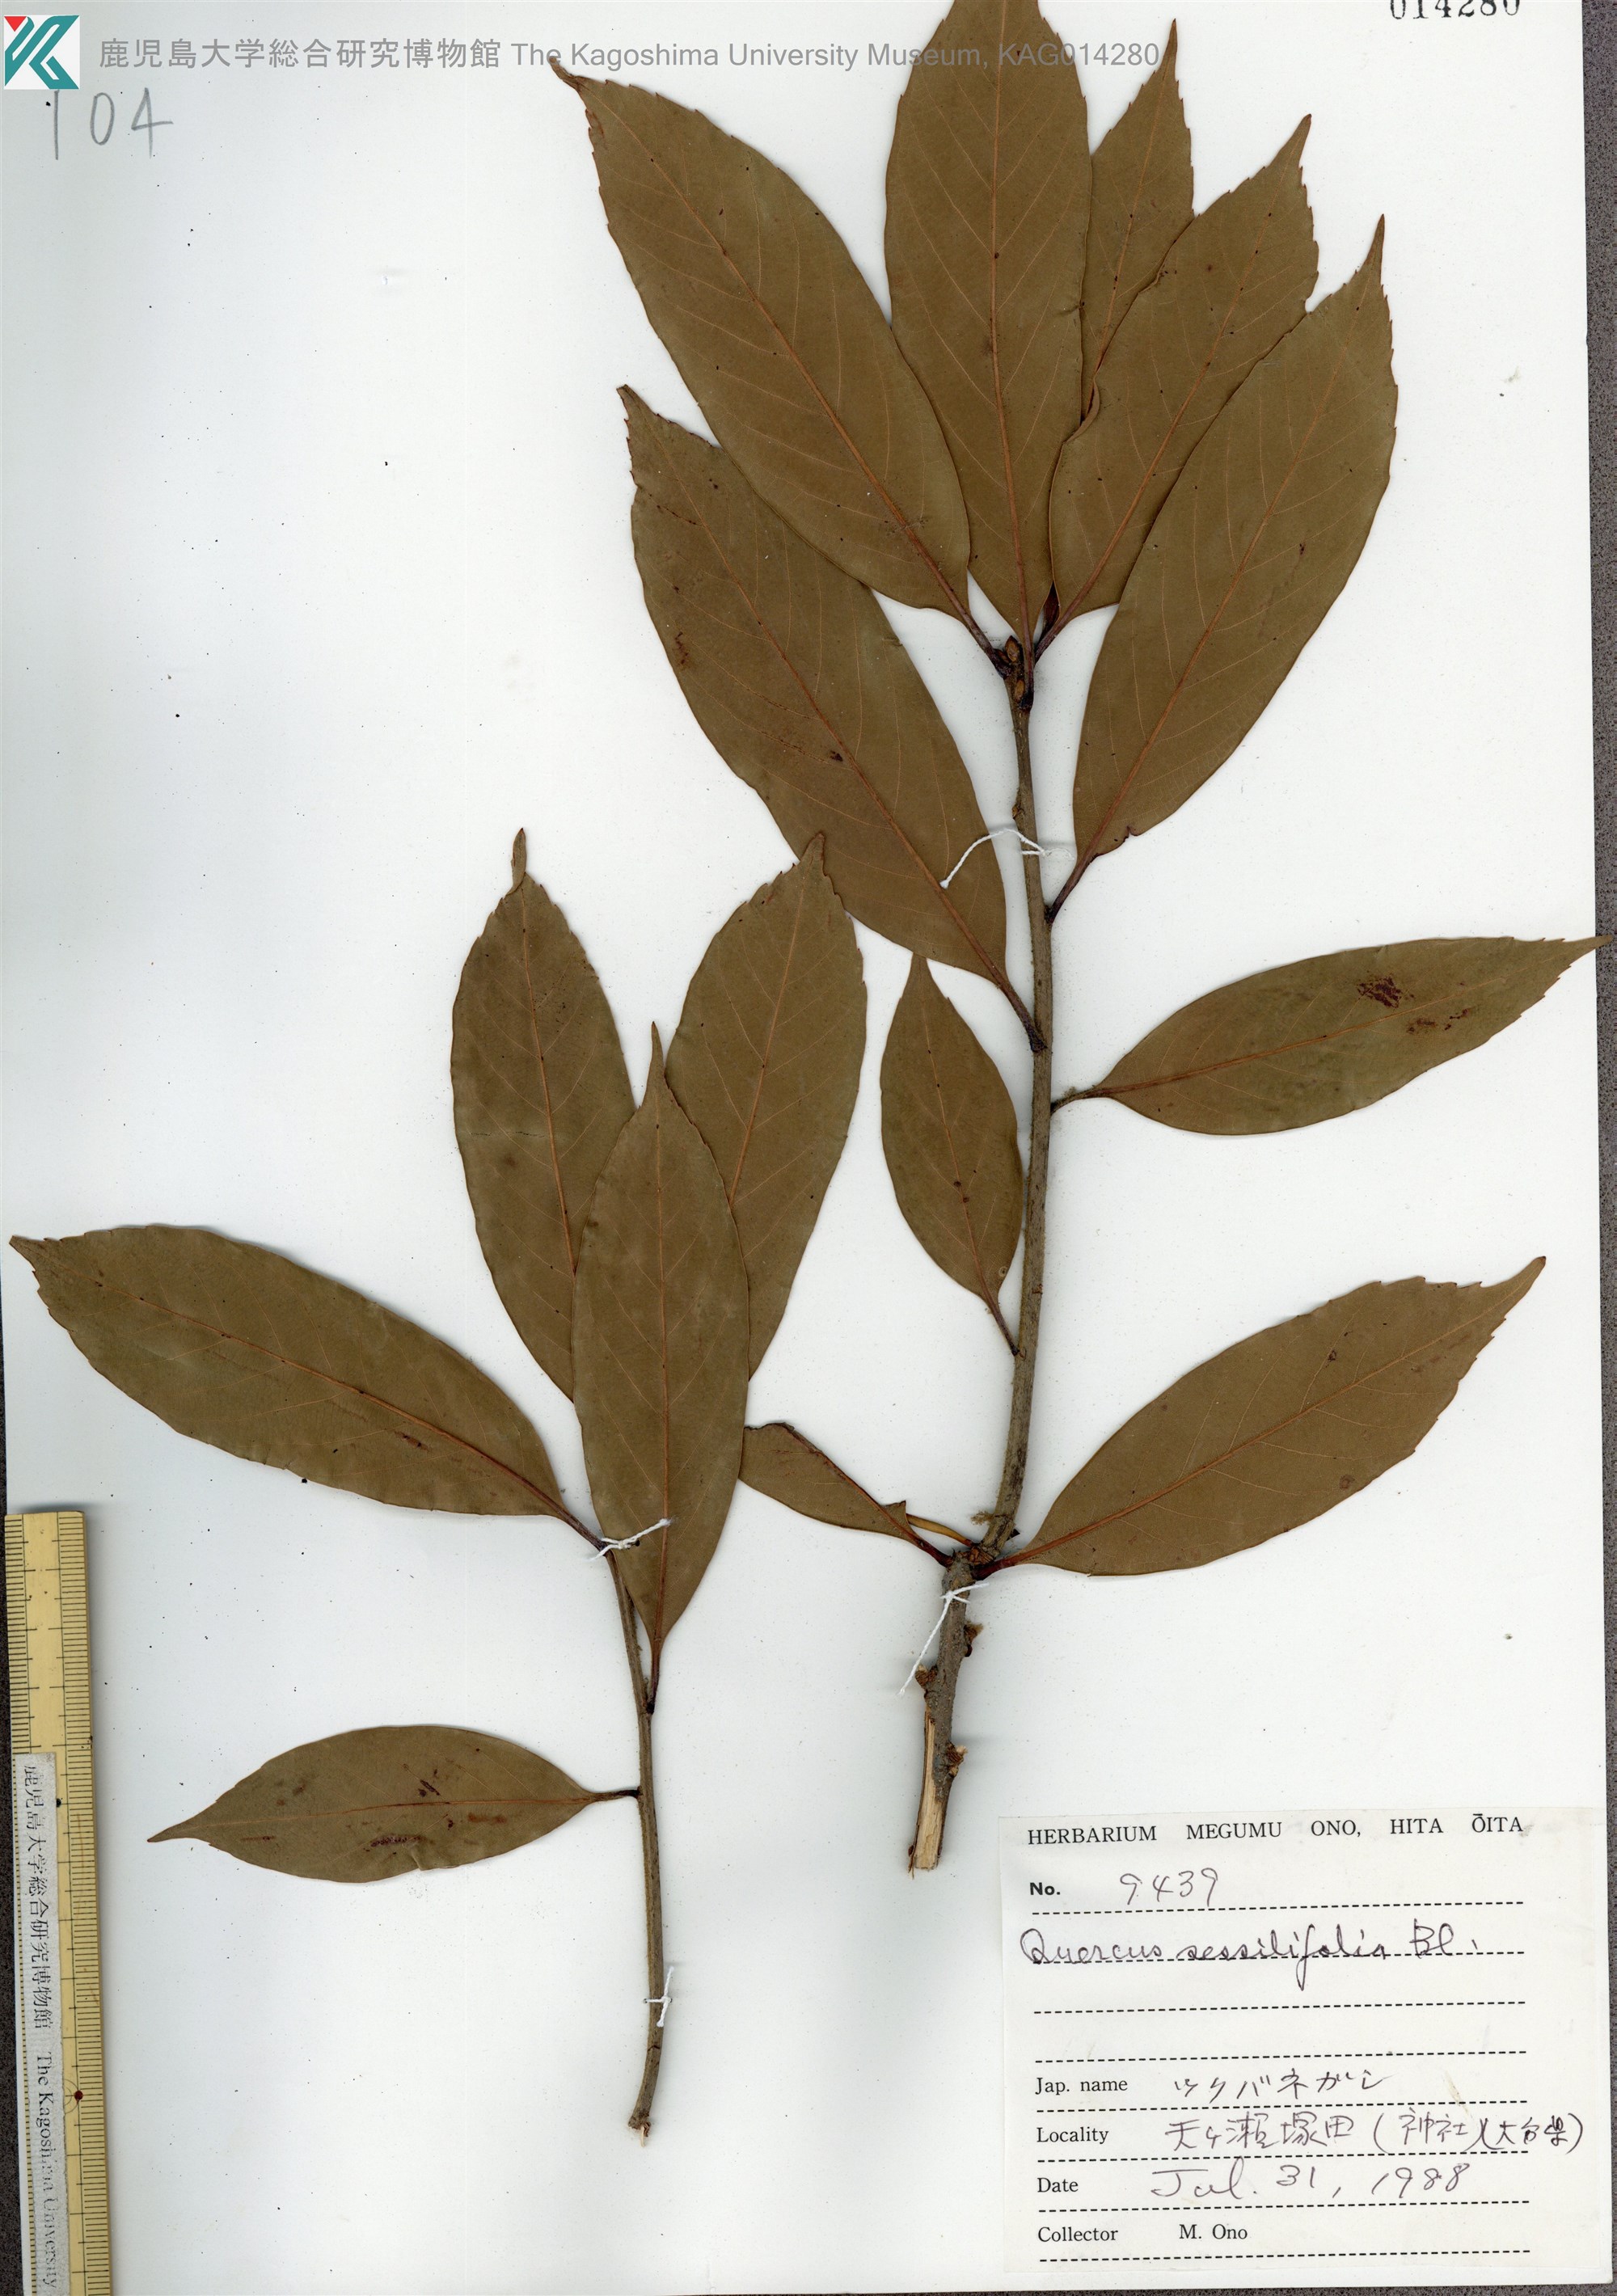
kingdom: Plantae
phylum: Tracheophyta
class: Magnoliopsida
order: Fagales
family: Fagaceae
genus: Quercus
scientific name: Quercus sessilifolia
